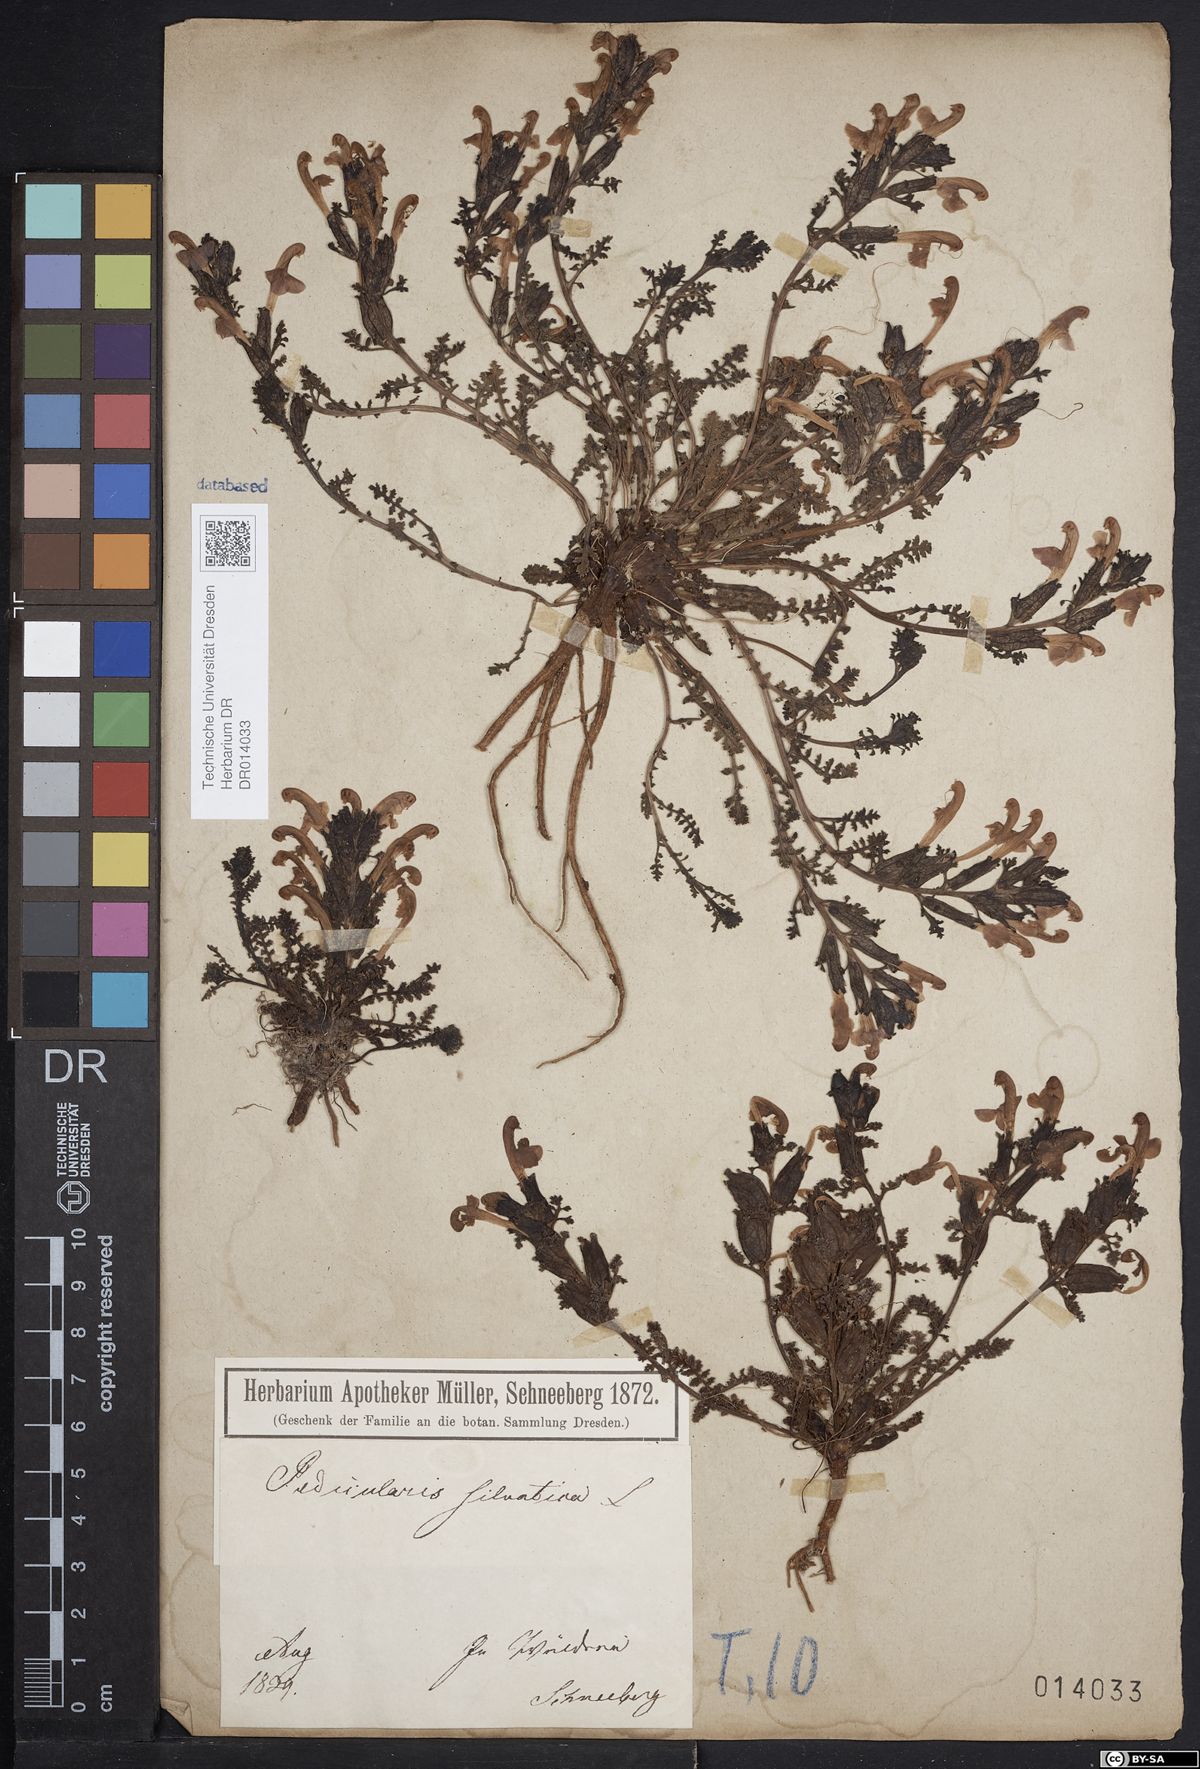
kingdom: Plantae
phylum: Tracheophyta
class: Magnoliopsida
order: Lamiales
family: Orobanchaceae
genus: Pedicularis
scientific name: Pedicularis sylvatica
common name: Lousewort
